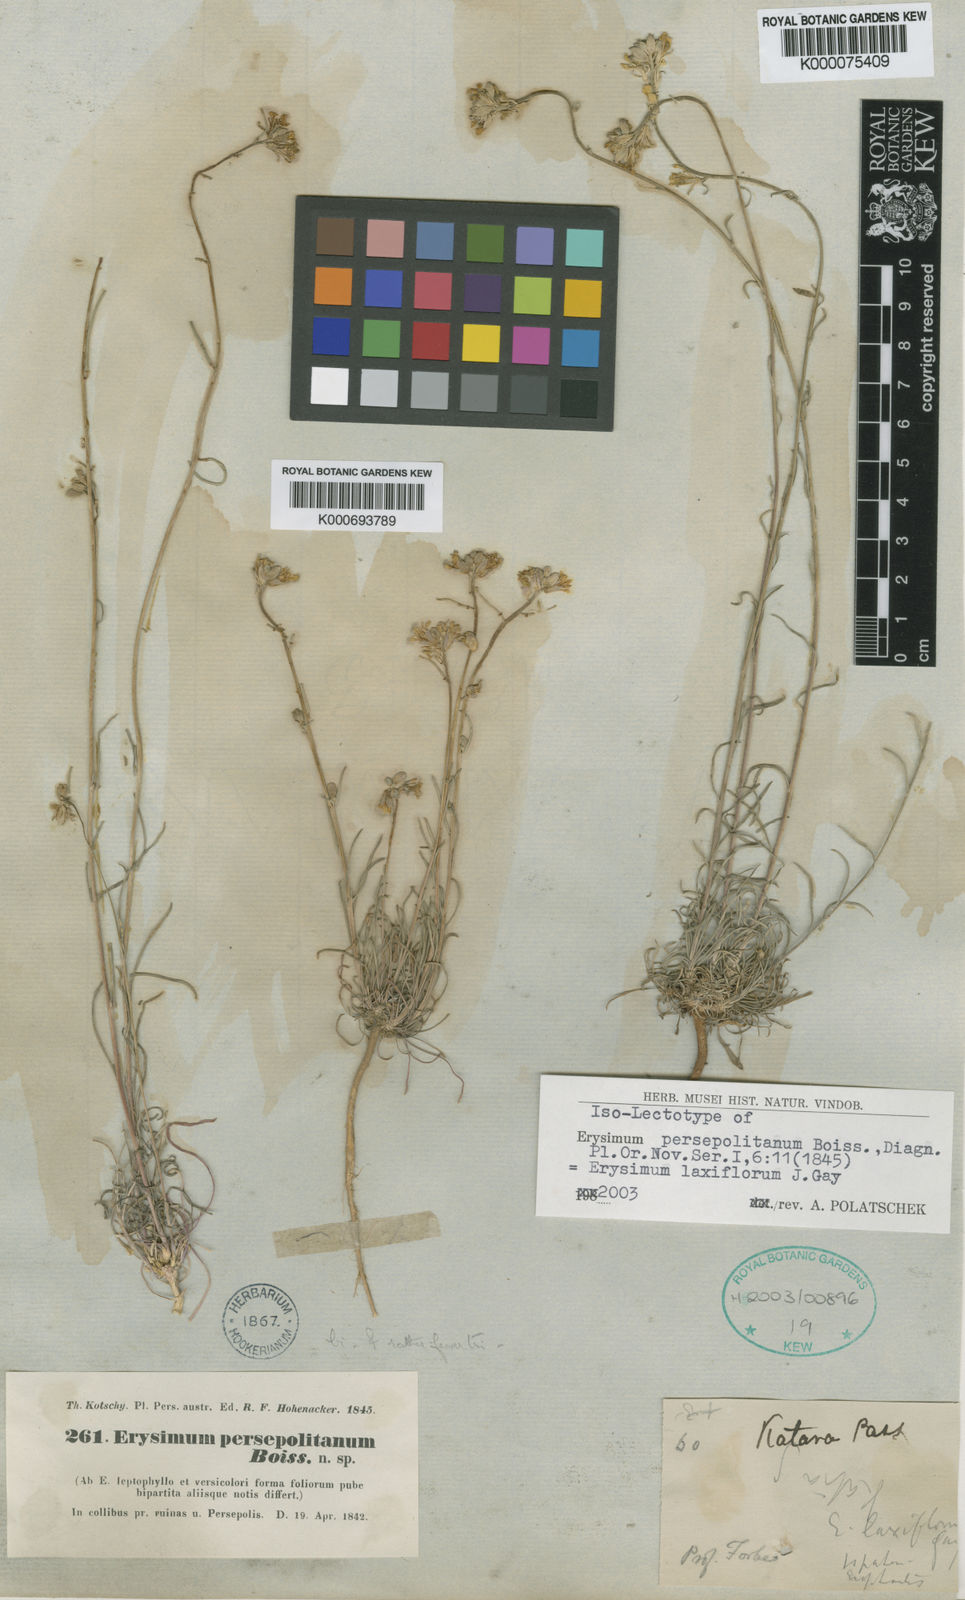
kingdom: Plantae
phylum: Tracheophyta
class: Magnoliopsida
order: Brassicales
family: Brassicaceae
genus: Erysimum
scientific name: Erysimum laxiflorum
